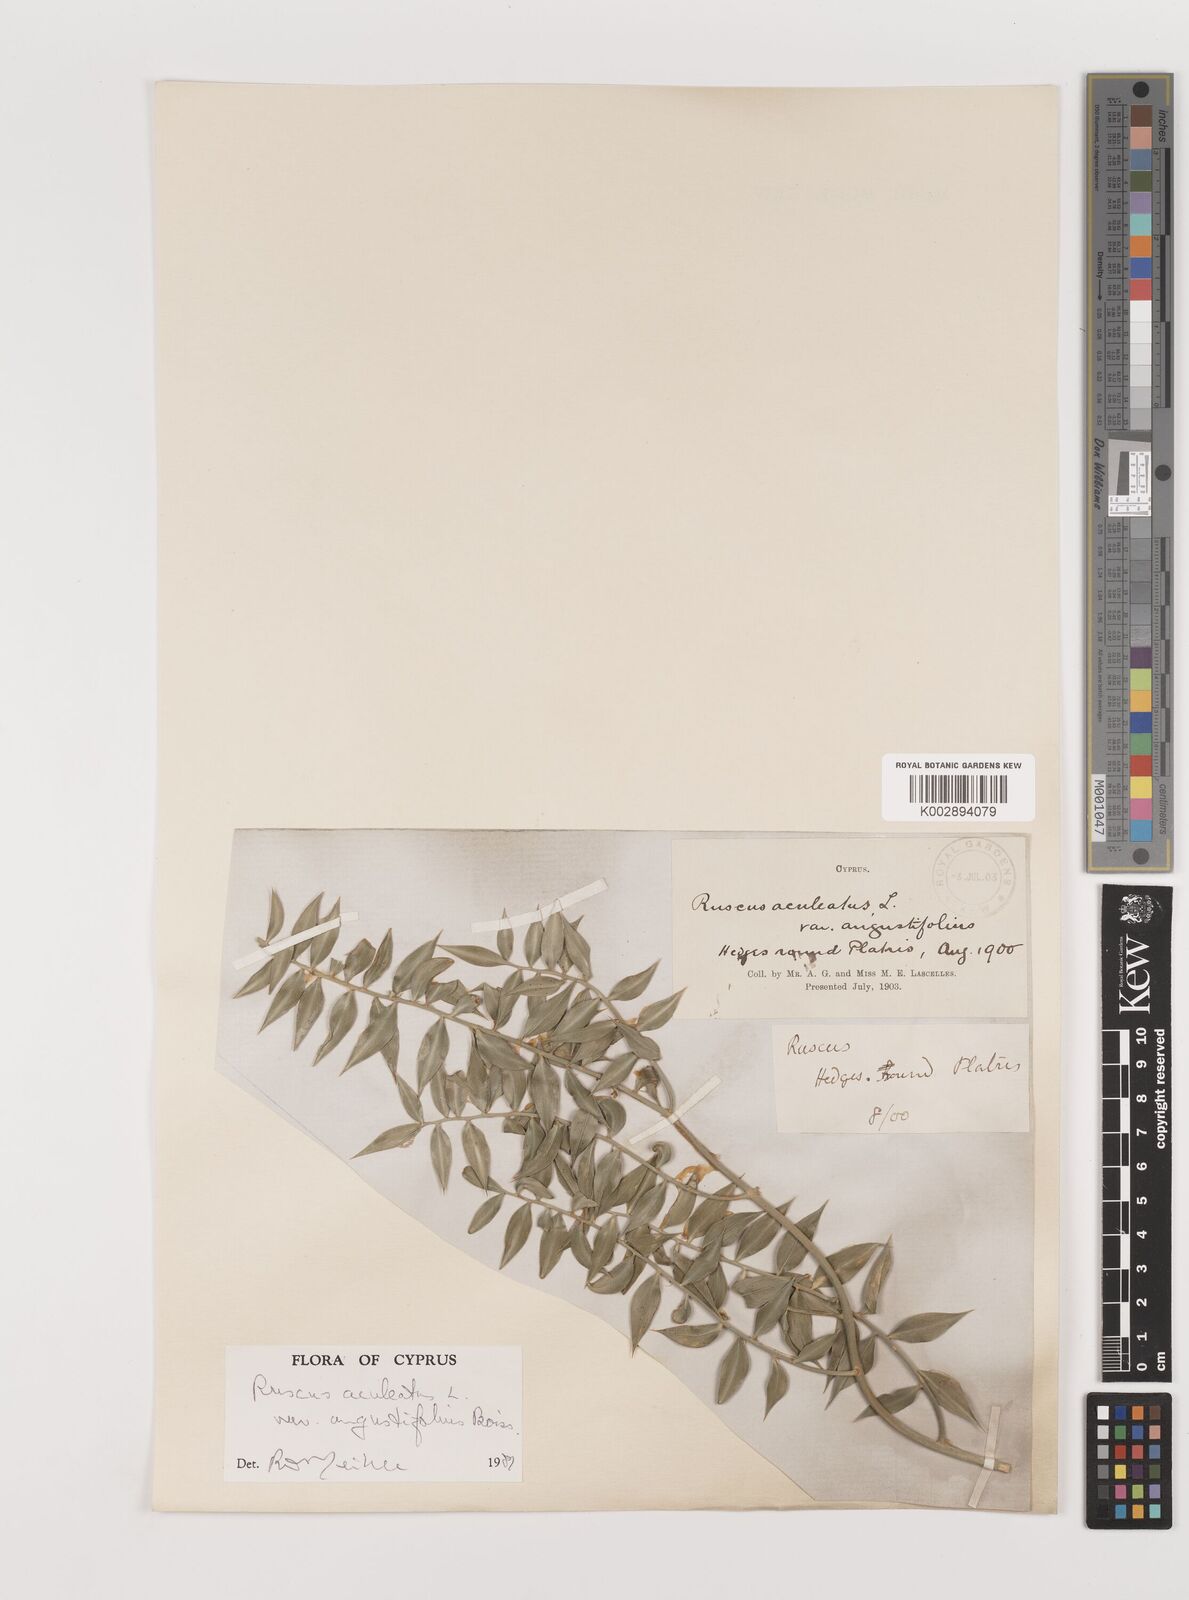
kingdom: Plantae
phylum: Tracheophyta
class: Liliopsida
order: Asparagales
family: Asparagaceae
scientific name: Asparagaceae
